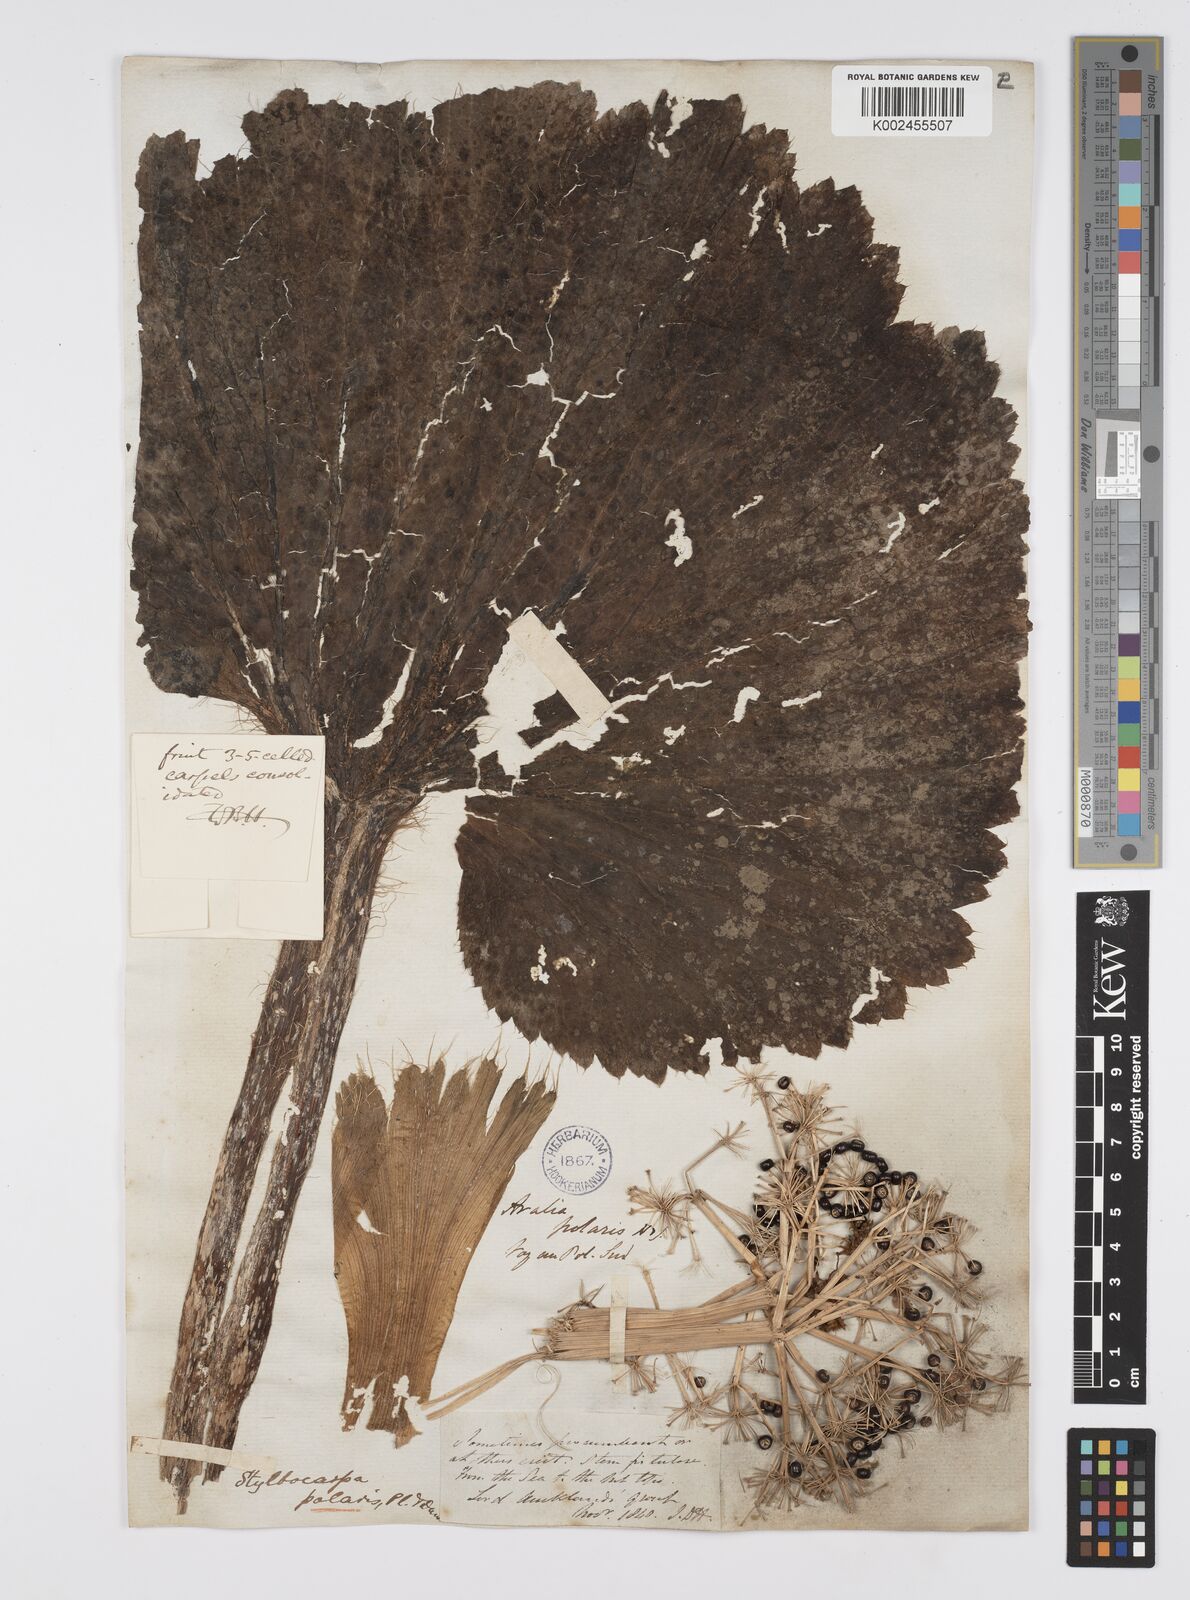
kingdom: Plantae
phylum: Tracheophyta
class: Magnoliopsida
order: Apiales
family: Araliaceae
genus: Stilbocarpa
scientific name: Stilbocarpa
